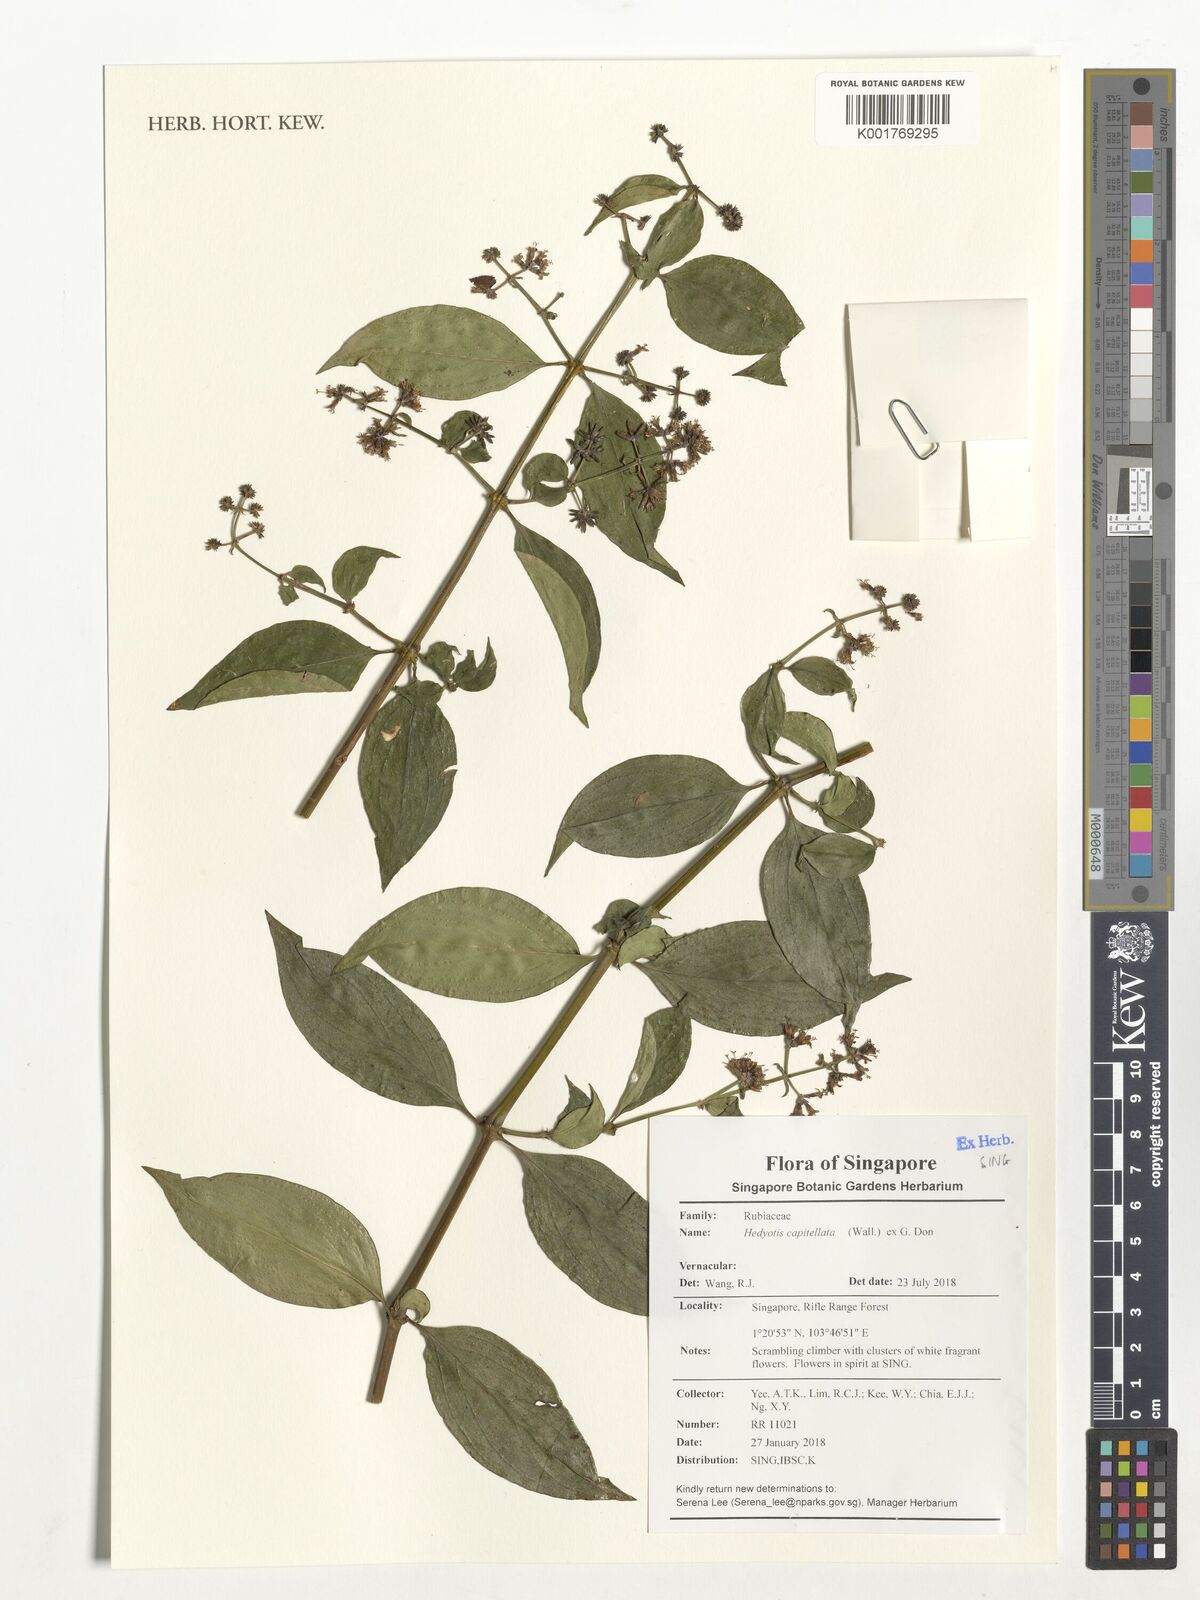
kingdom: Plantae
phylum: Tracheophyta
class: Magnoliopsida
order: Gentianales
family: Rubiaceae
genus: Dimetia
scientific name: Dimetia capitellata
